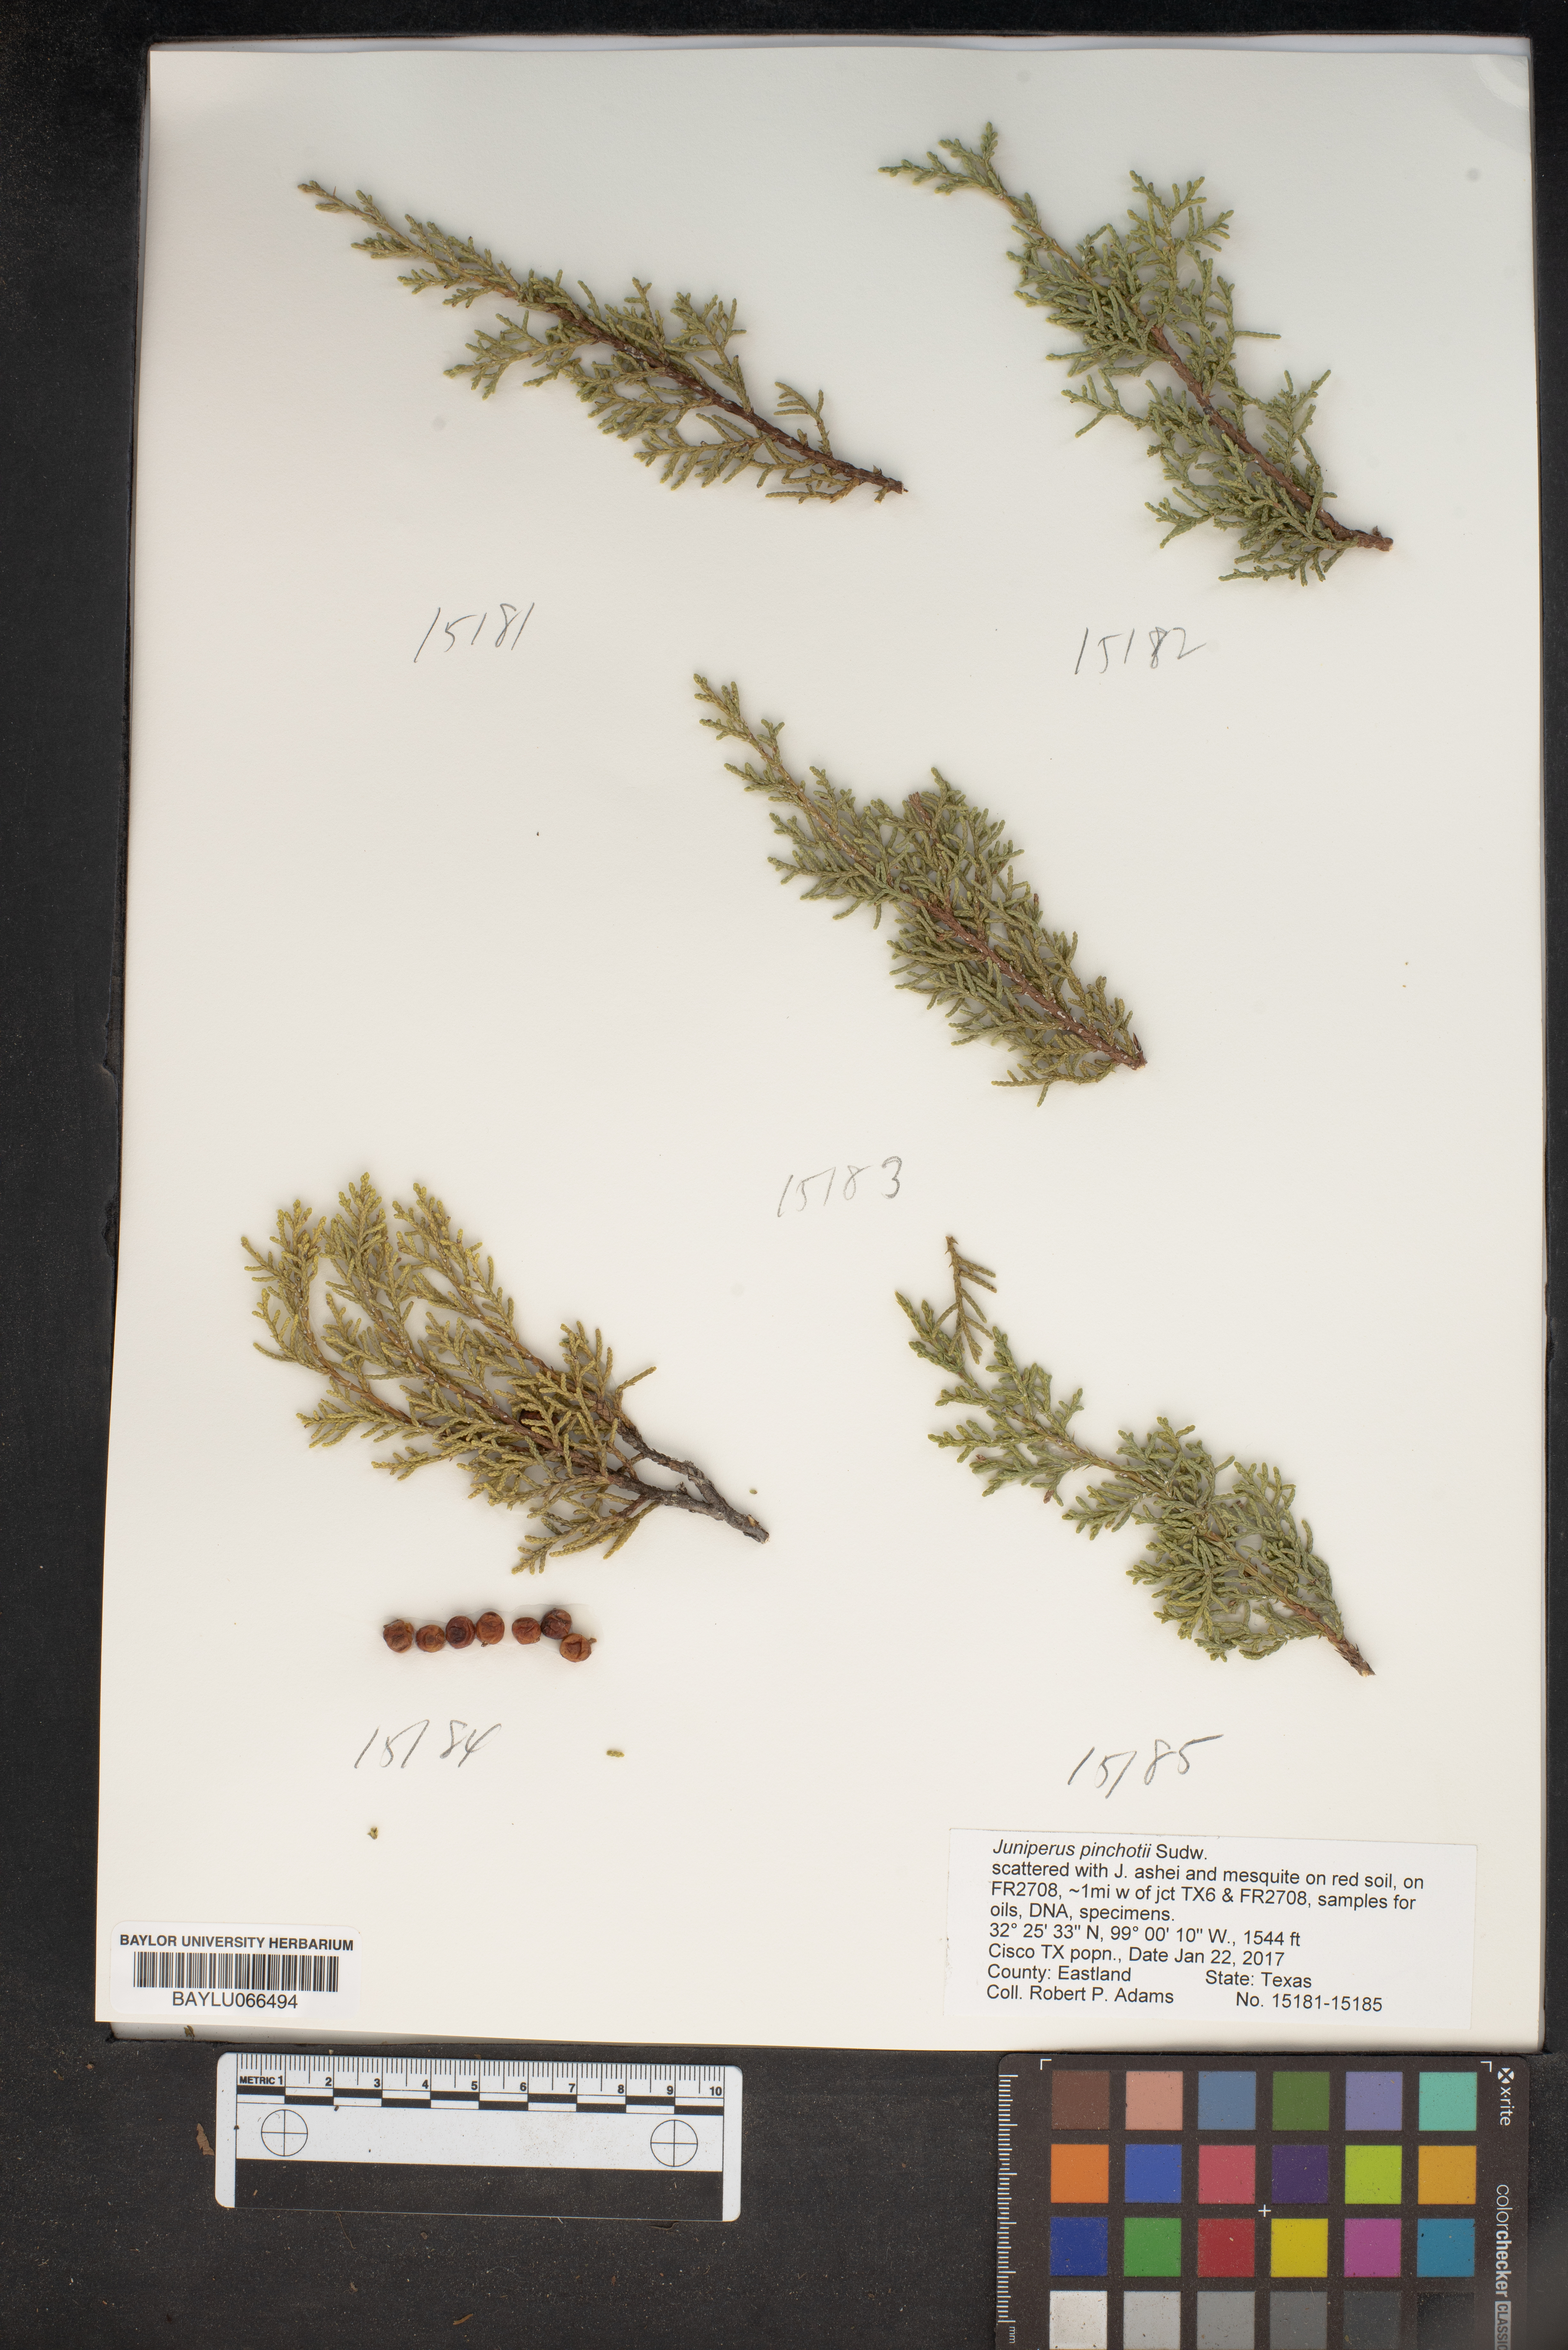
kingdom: Plantae
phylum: Tracheophyta
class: Pinopsida
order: Pinales
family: Cupressaceae
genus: Juniperus
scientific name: Juniperus pinchotii
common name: Pinchot juniper
